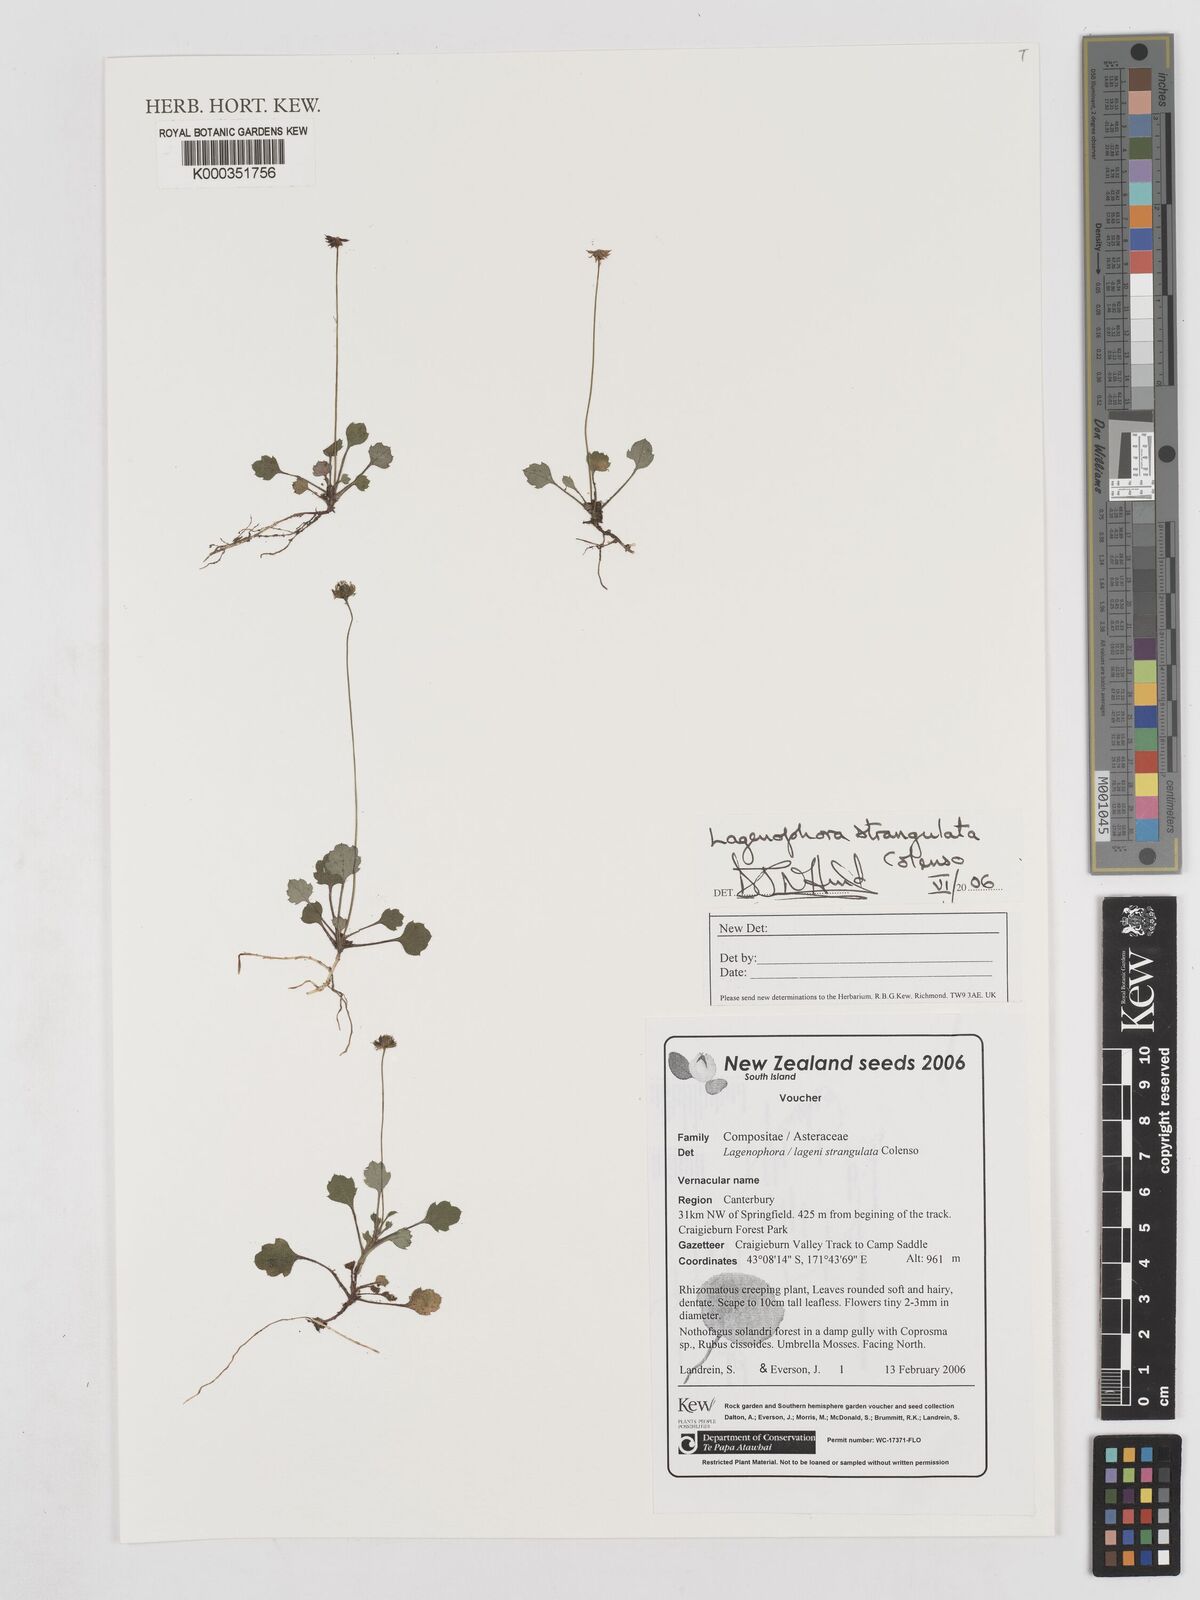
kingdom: Plantae
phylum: Tracheophyta
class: Magnoliopsida
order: Asterales
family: Asteraceae
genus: Lagenophora
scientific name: Lagenophora strangulata
